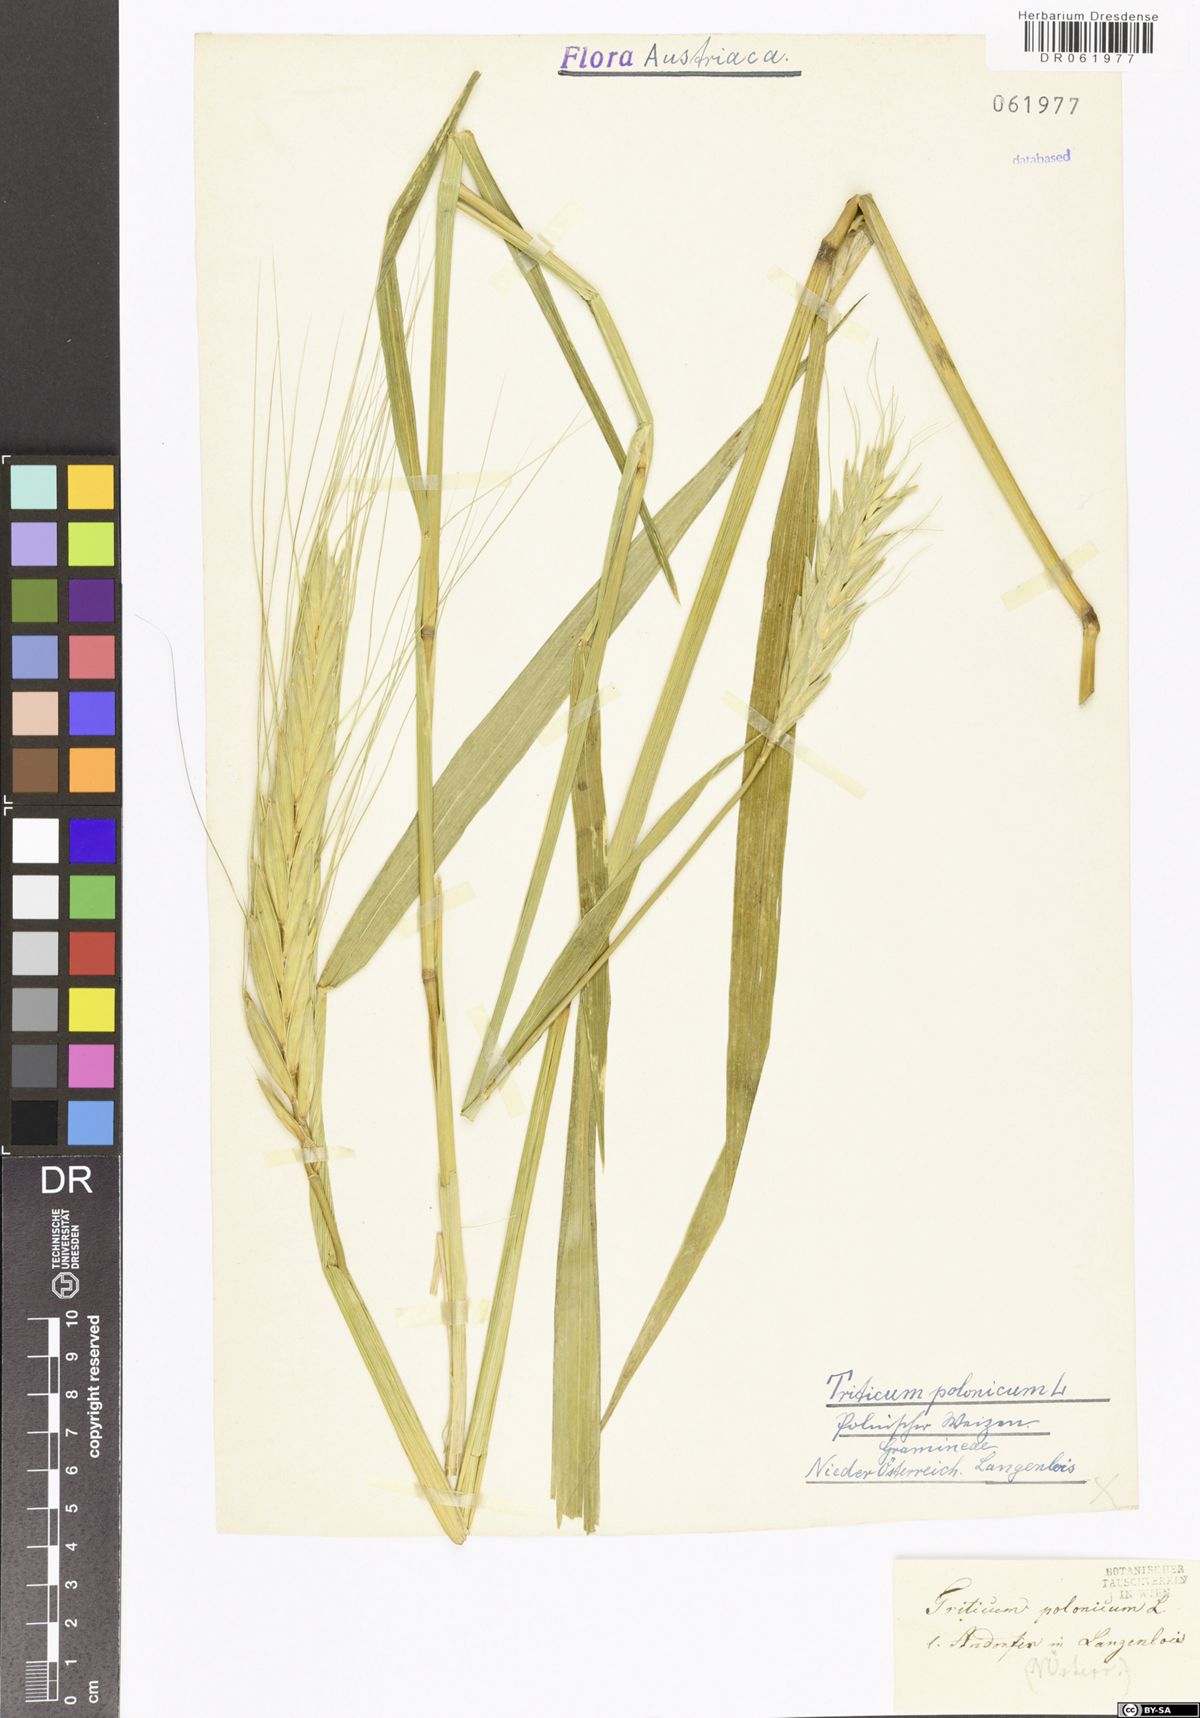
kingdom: Plantae
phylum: Tracheophyta
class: Liliopsida
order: Poales
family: Poaceae
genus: Triticum
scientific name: Triticum turgidum
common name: Rivet wheat
